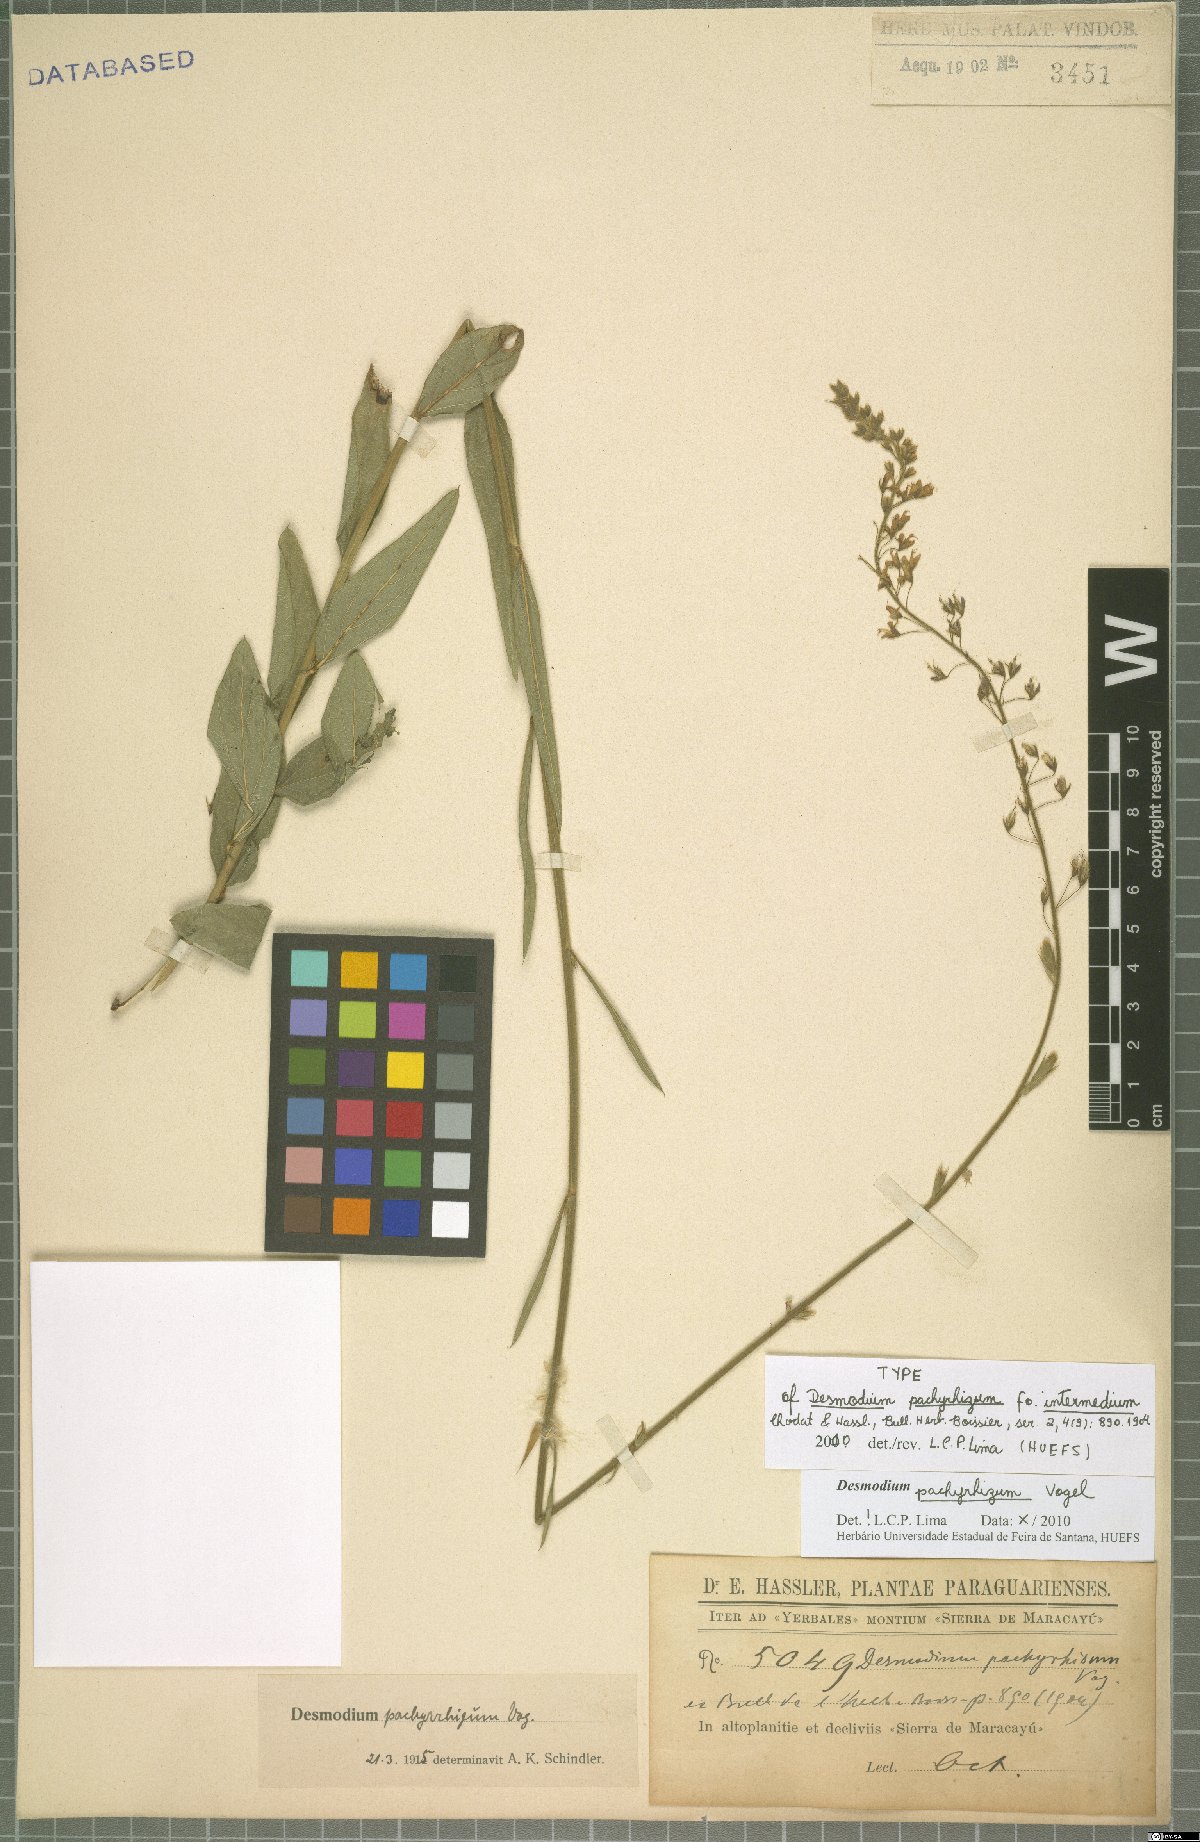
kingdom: Plantae
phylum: Tracheophyta
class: Magnoliopsida
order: Fabales
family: Fabaceae
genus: Desmodium
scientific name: Desmodium pachyrhizum
